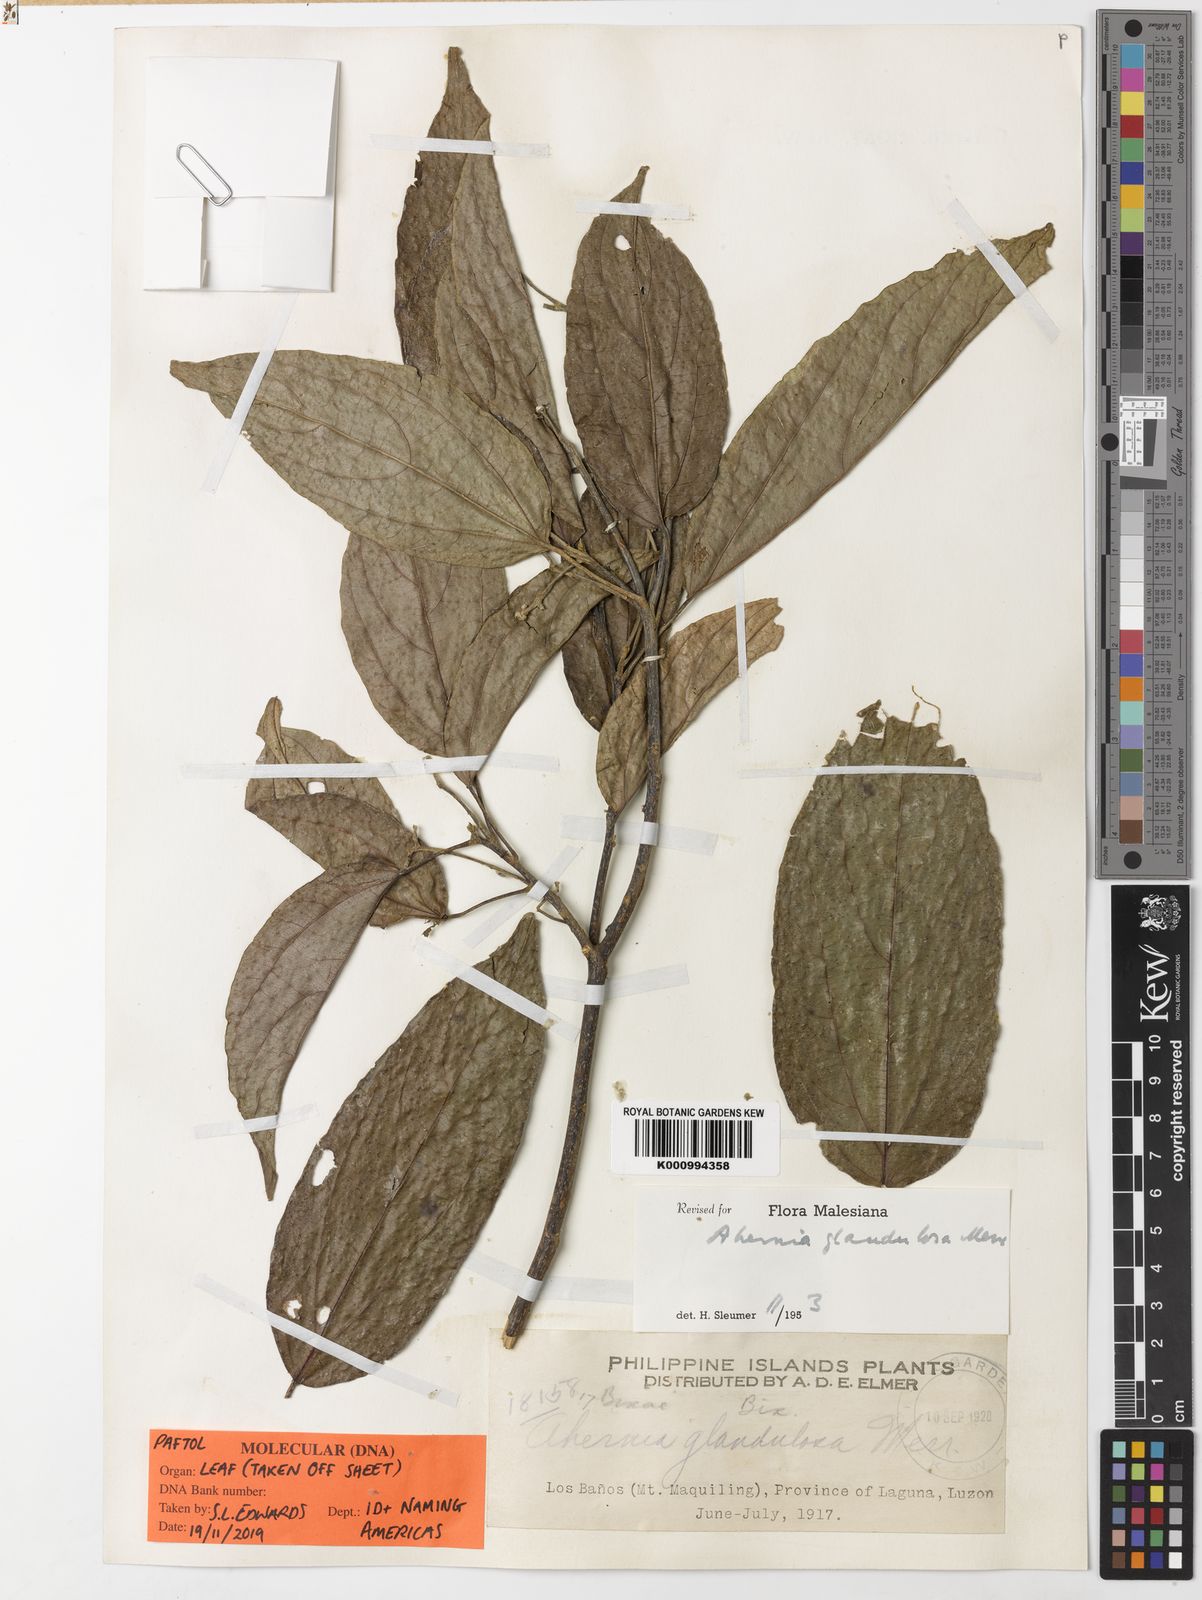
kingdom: Plantae
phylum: Tracheophyta
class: Magnoliopsida
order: Malpighiales
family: Achariaceae
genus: Ahernia
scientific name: Ahernia glandulosa
